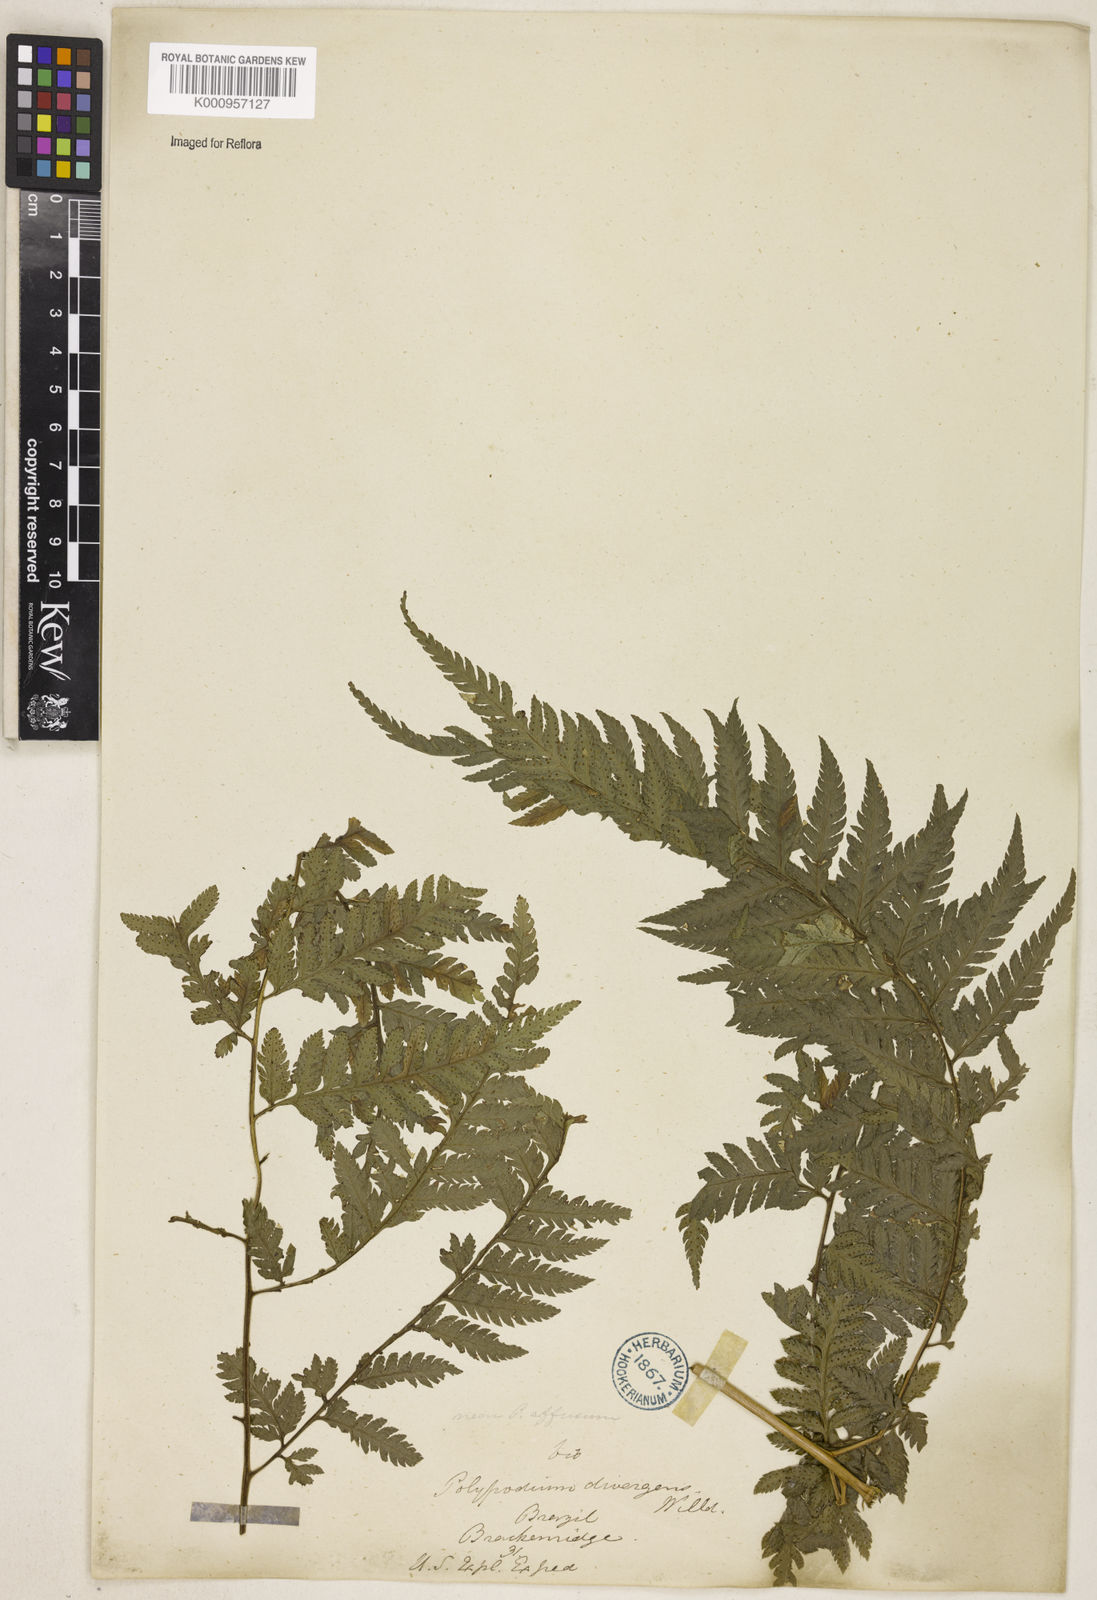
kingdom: Plantae
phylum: Tracheophyta
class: Polypodiopsida
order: Polypodiales
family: Dryopteridaceae
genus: Parapolystichum
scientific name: Parapolystichum effusum
